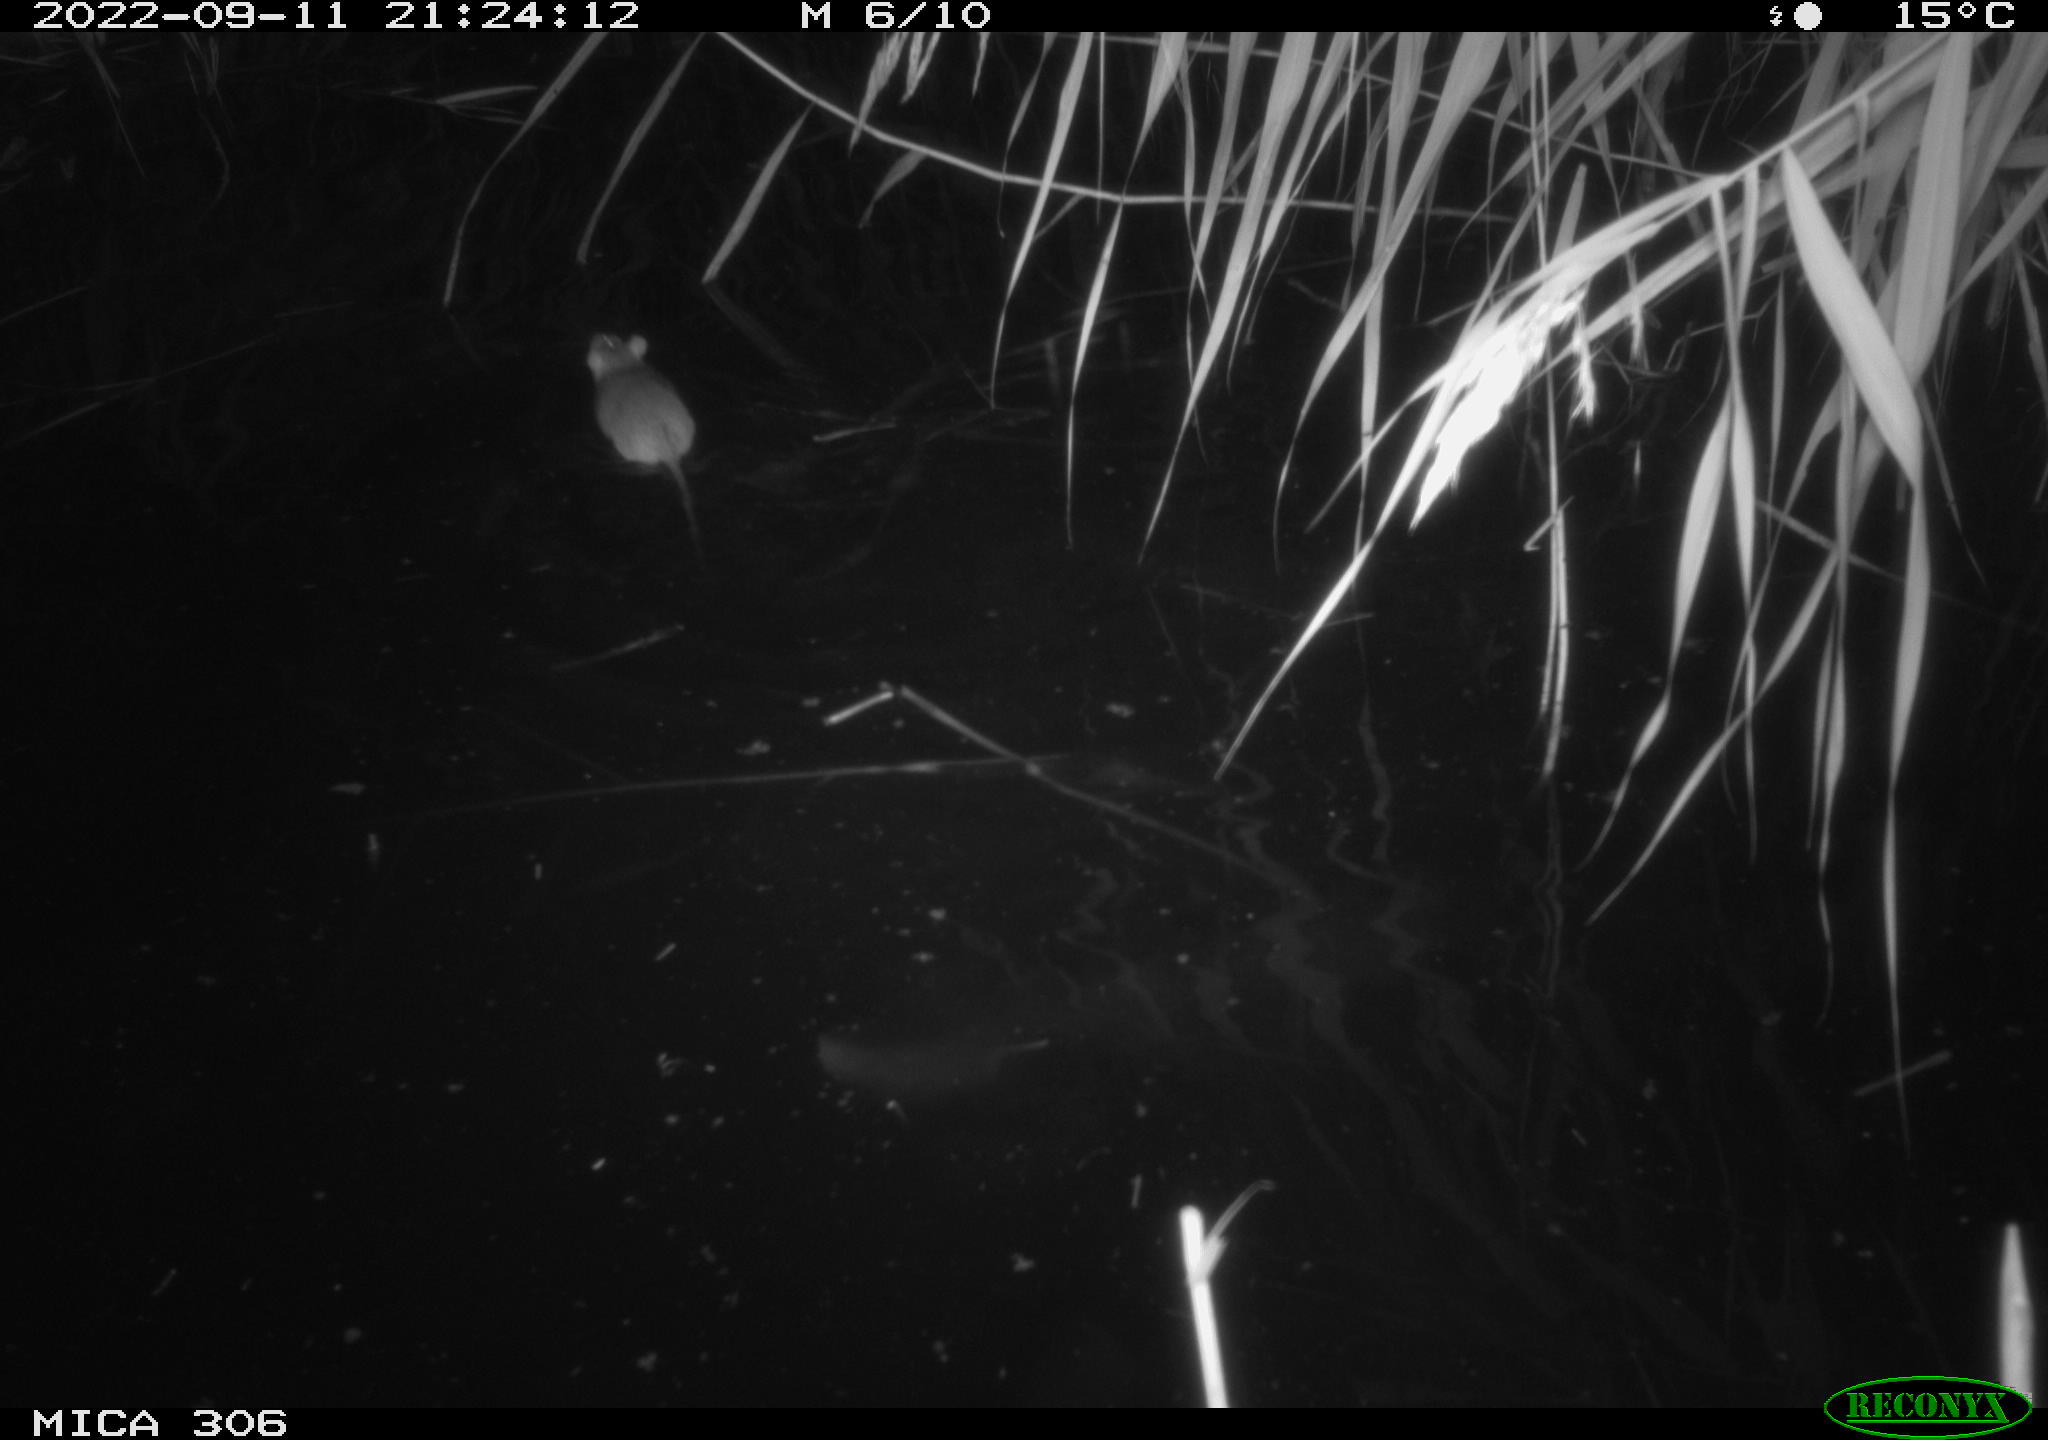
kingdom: Animalia
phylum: Chordata
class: Mammalia
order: Rodentia
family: Muridae
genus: Rattus
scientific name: Rattus norvegicus
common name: Brown rat
